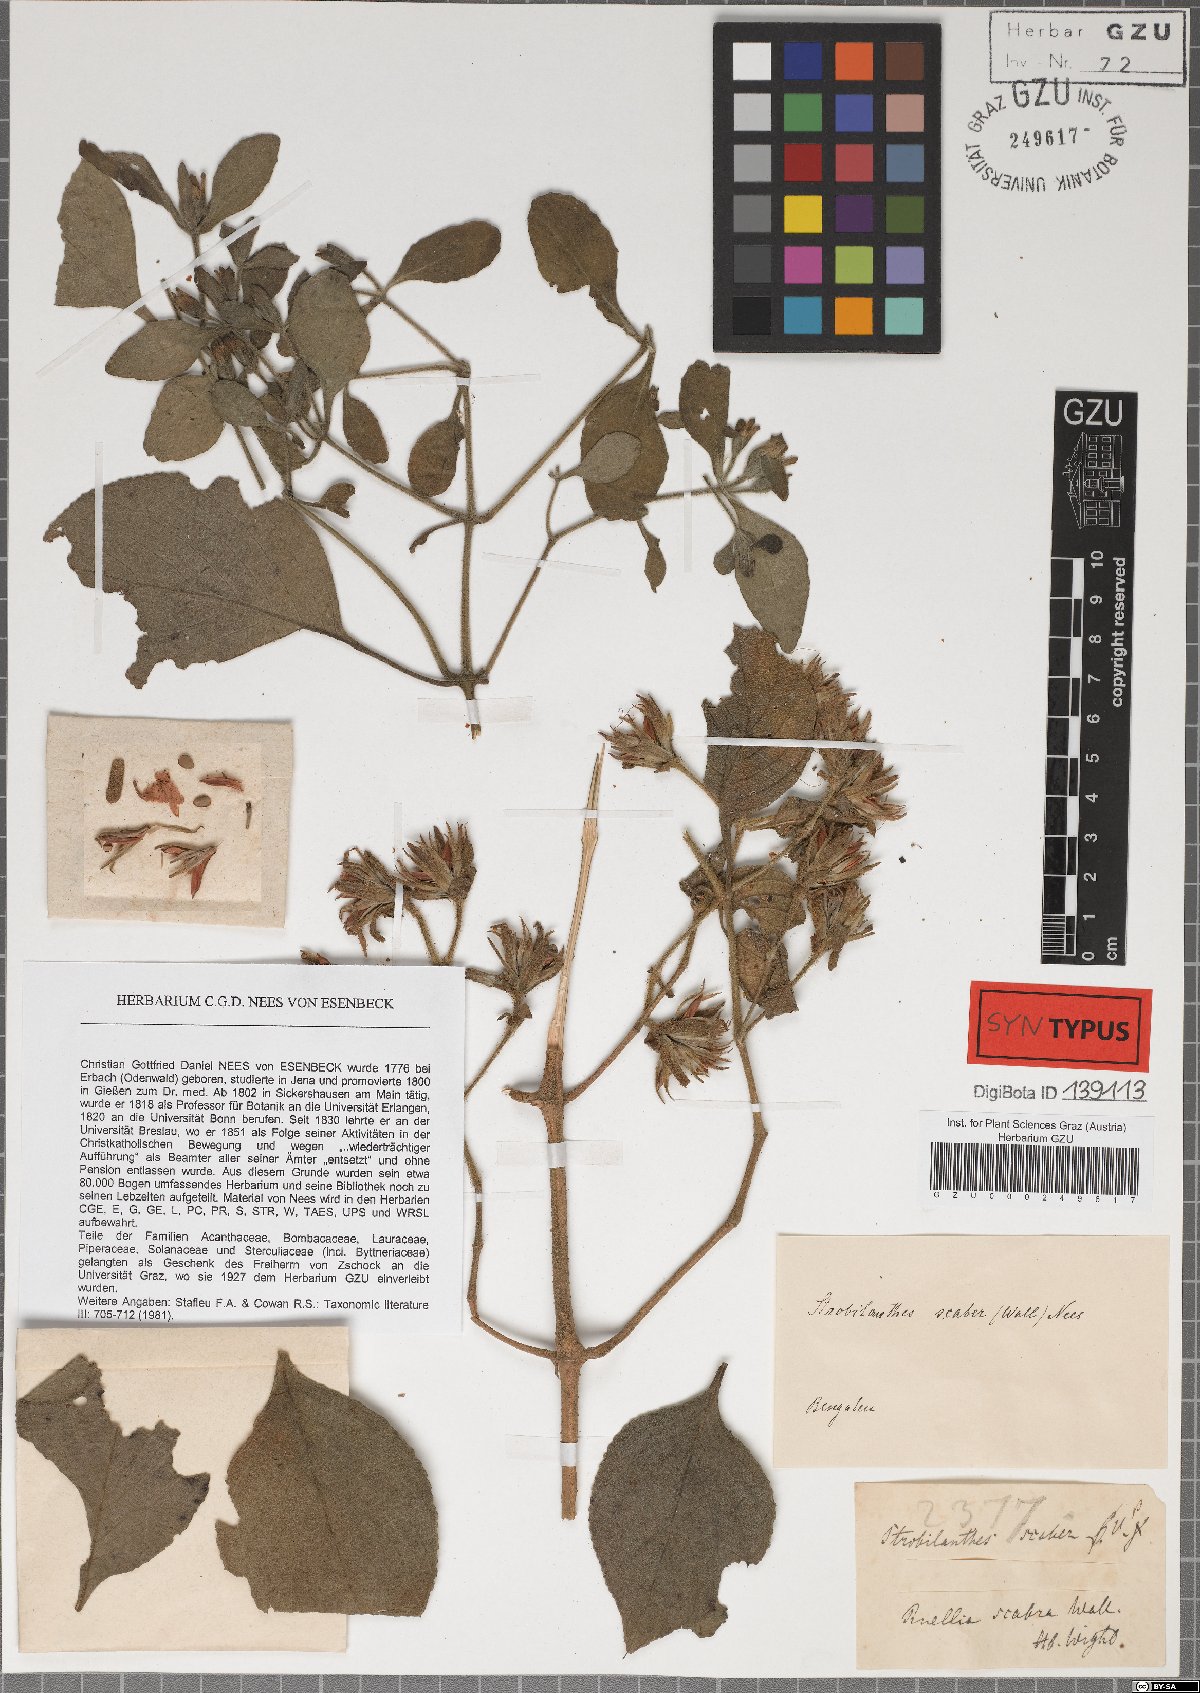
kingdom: Plantae
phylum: Tracheophyta
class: Magnoliopsida
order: Lamiales
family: Acanthaceae
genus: Strobilanthes
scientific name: Strobilanthes scaber
